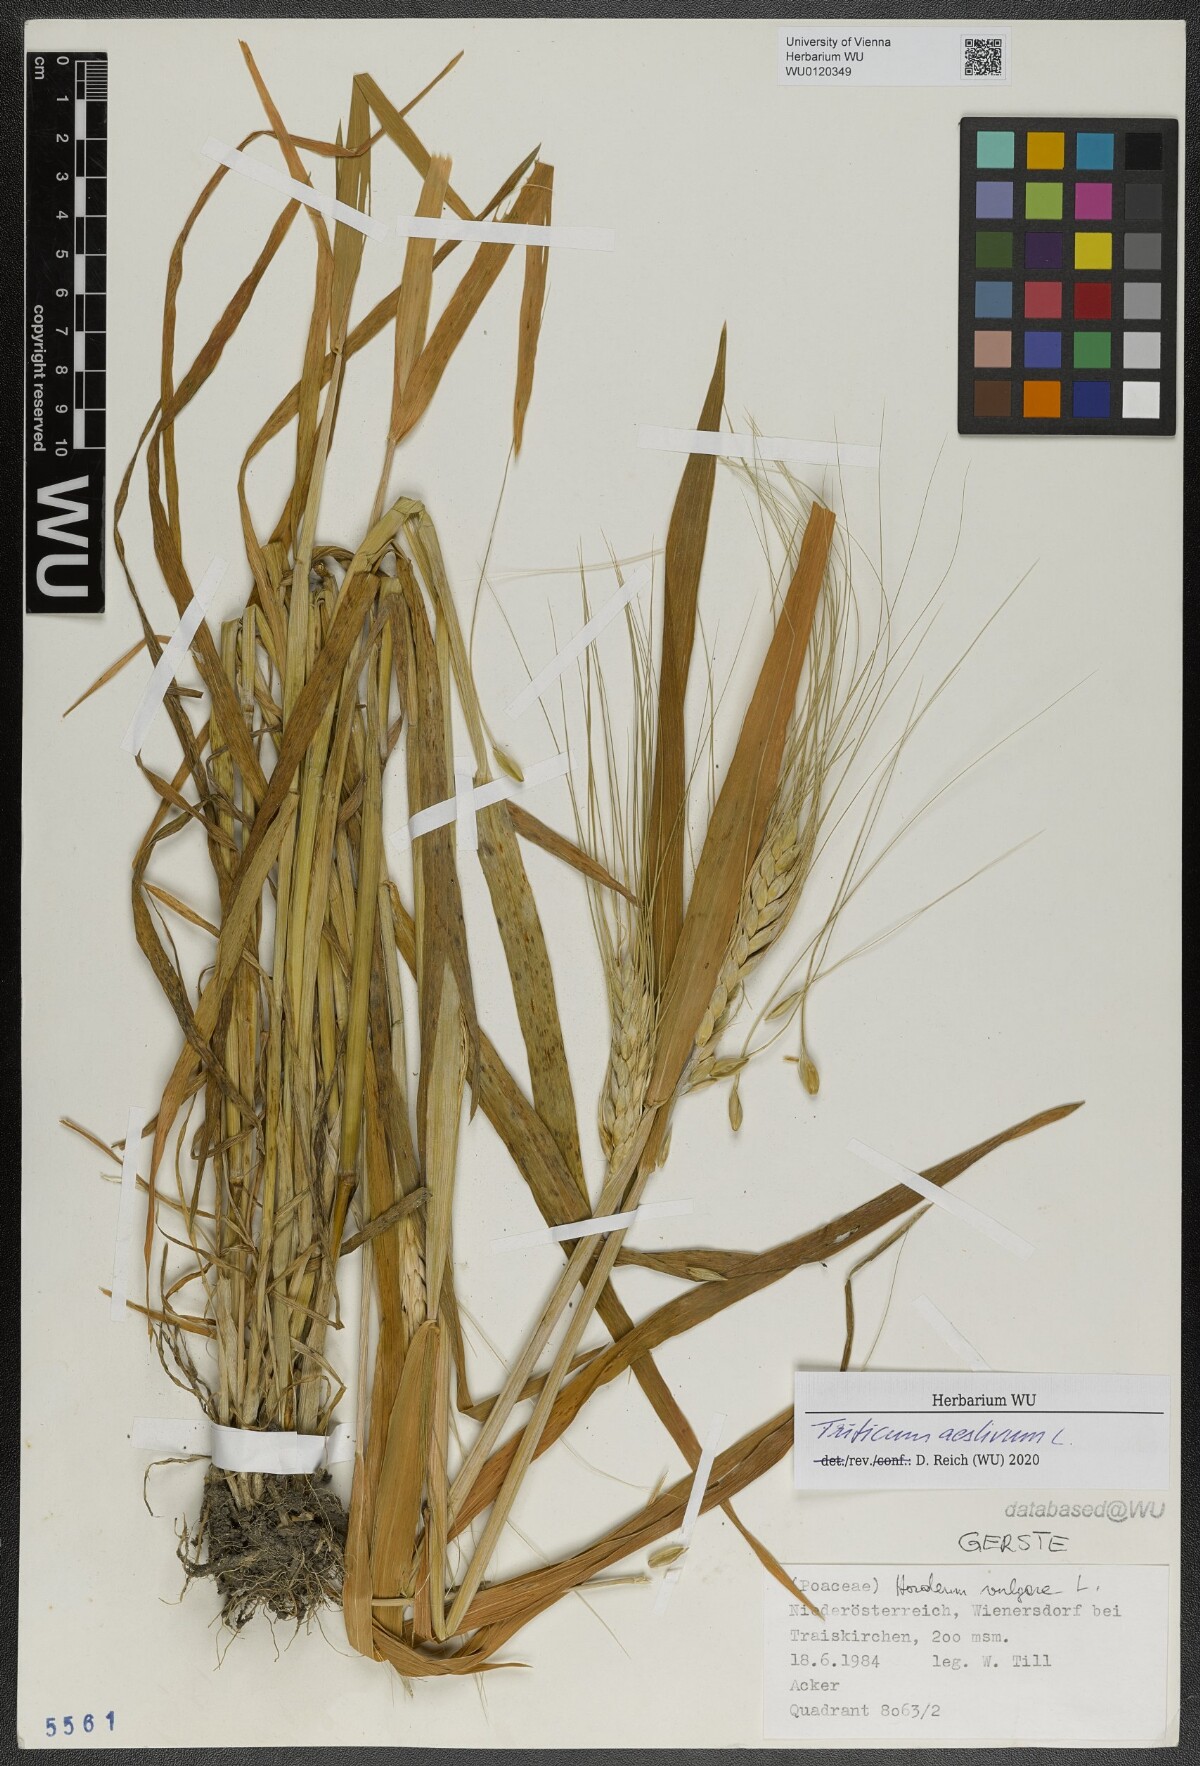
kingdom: Plantae
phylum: Tracheophyta
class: Liliopsida
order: Poales
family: Poaceae
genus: Triticum
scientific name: Triticum aestivum
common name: Common wheat
